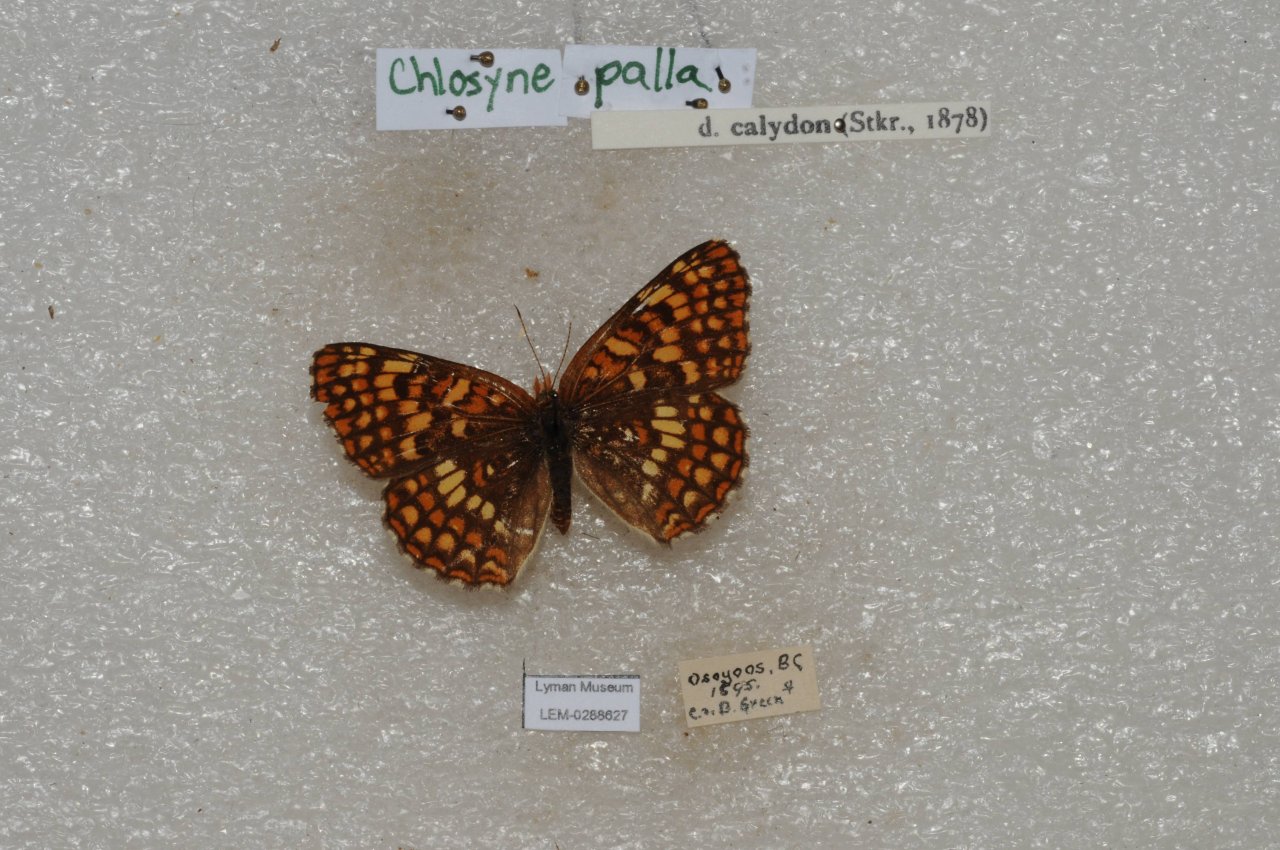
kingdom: Animalia
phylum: Arthropoda
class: Insecta
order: Lepidoptera
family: Nymphalidae
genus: Chlosyne
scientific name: Chlosyne palla
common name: Northern Checkerspot
